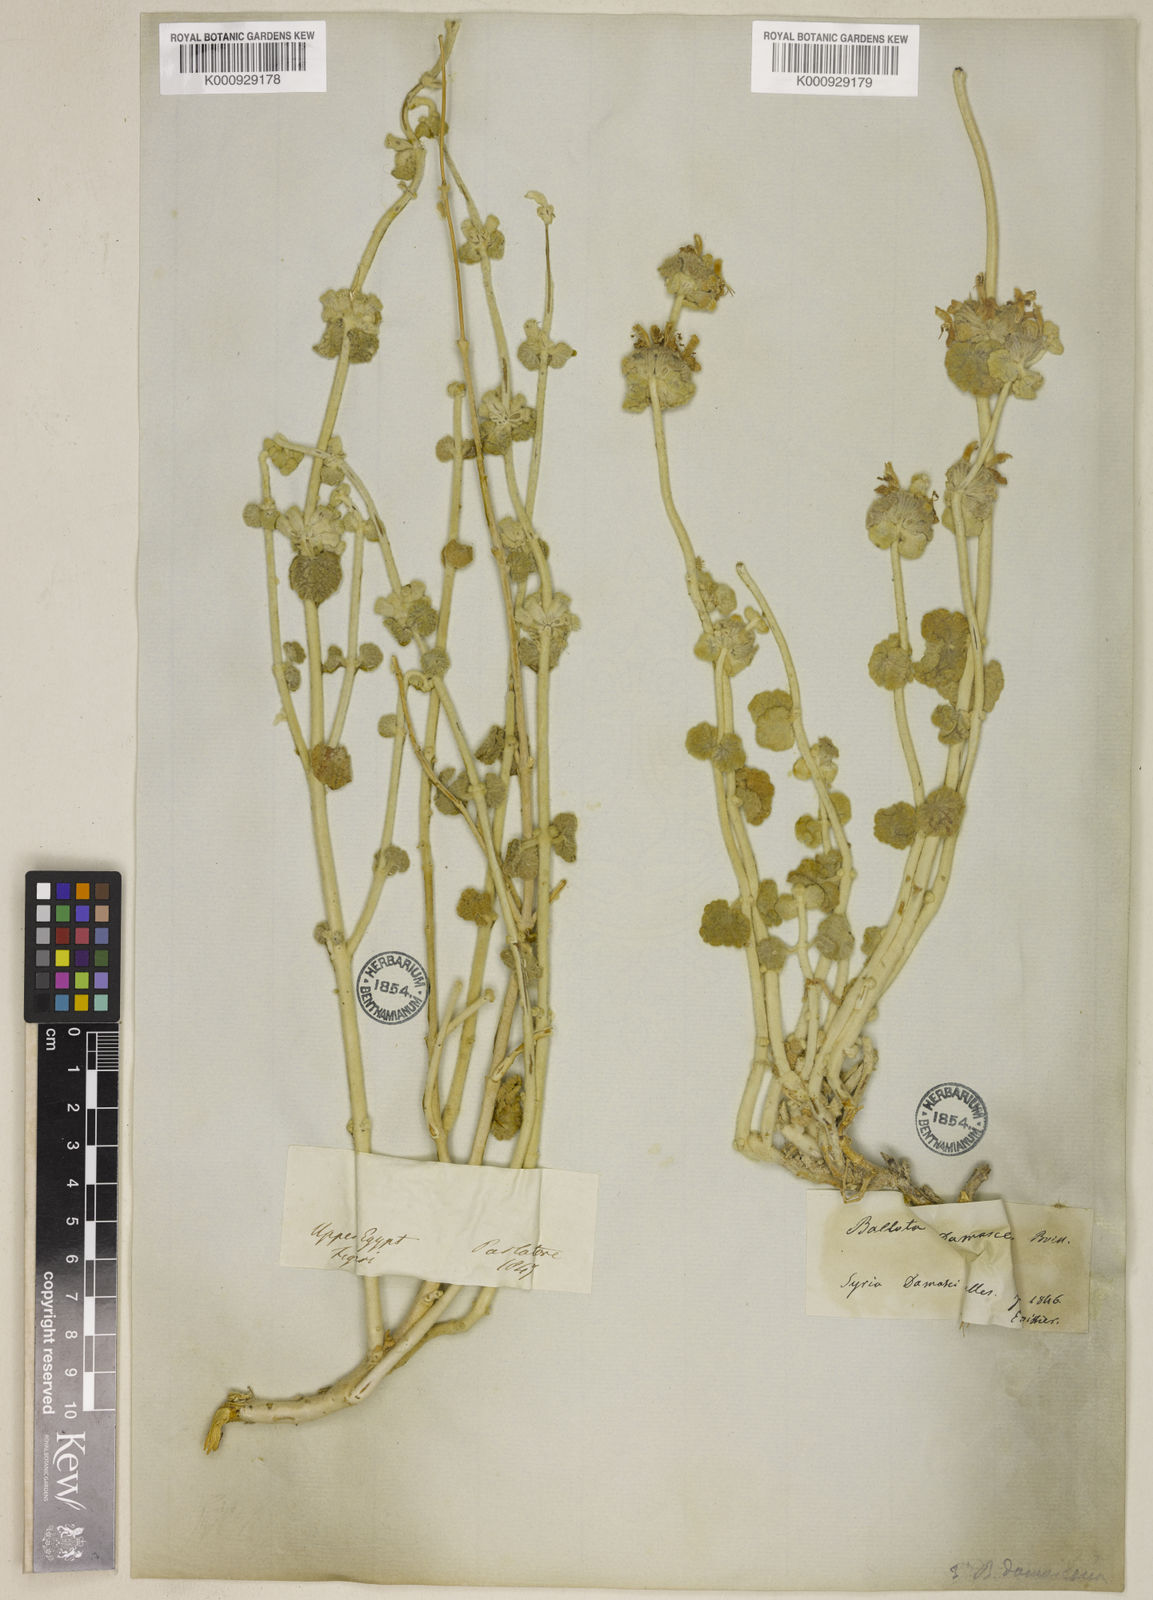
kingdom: Plantae
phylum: Tracheophyta
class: Magnoliopsida
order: Lamiales
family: Lamiaceae
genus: Pseudodictamnus
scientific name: Pseudodictamnus damascenus
